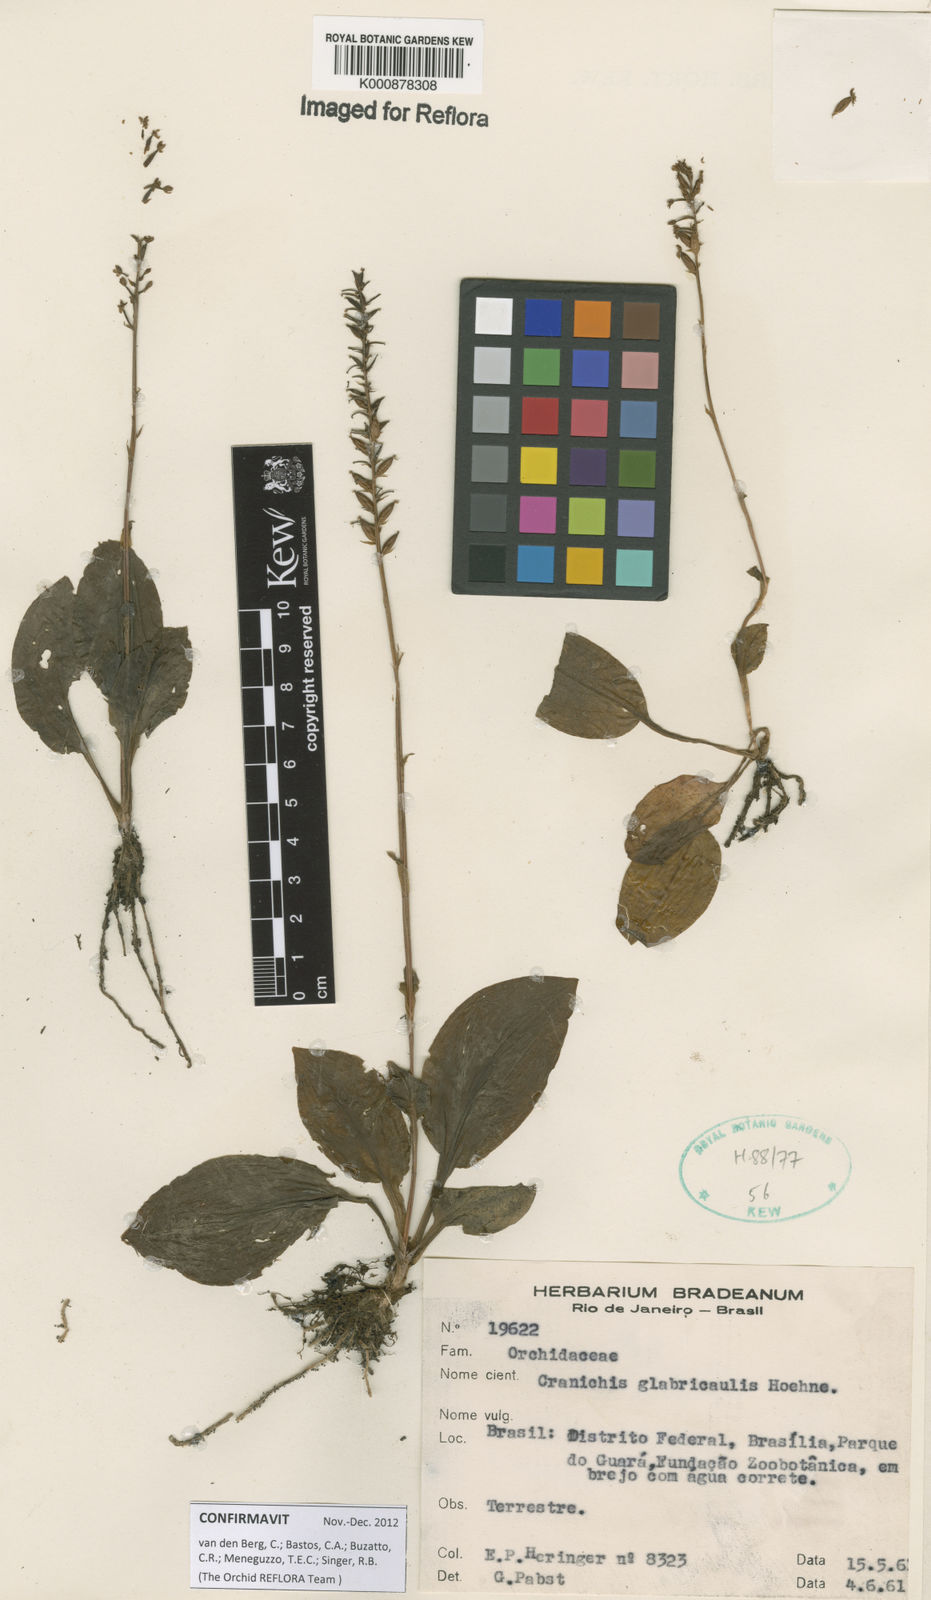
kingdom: Plantae
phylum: Tracheophyta
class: Liliopsida
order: Asparagales
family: Orchidaceae
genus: Cranichis
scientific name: Cranichis glabricaulis
